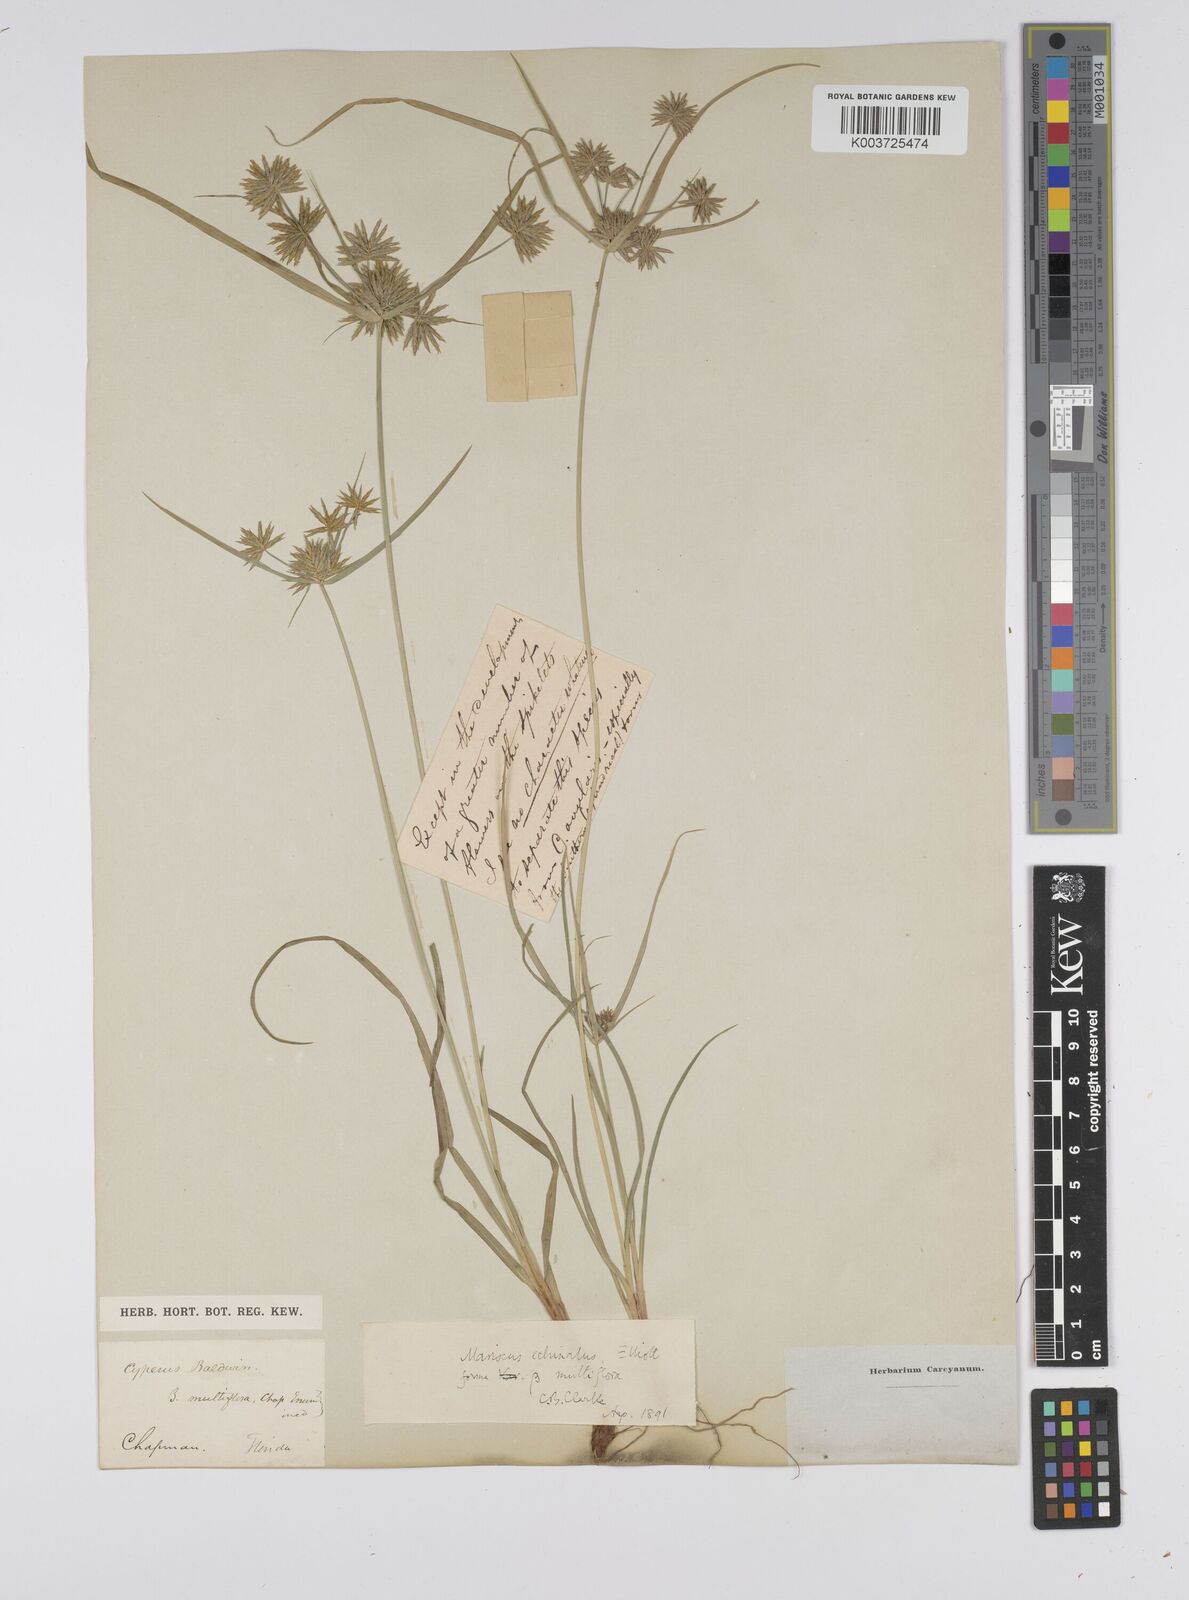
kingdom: Plantae
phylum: Tracheophyta
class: Liliopsida
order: Poales
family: Cyperaceae
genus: Cyperus
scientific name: Cyperus luzulae
